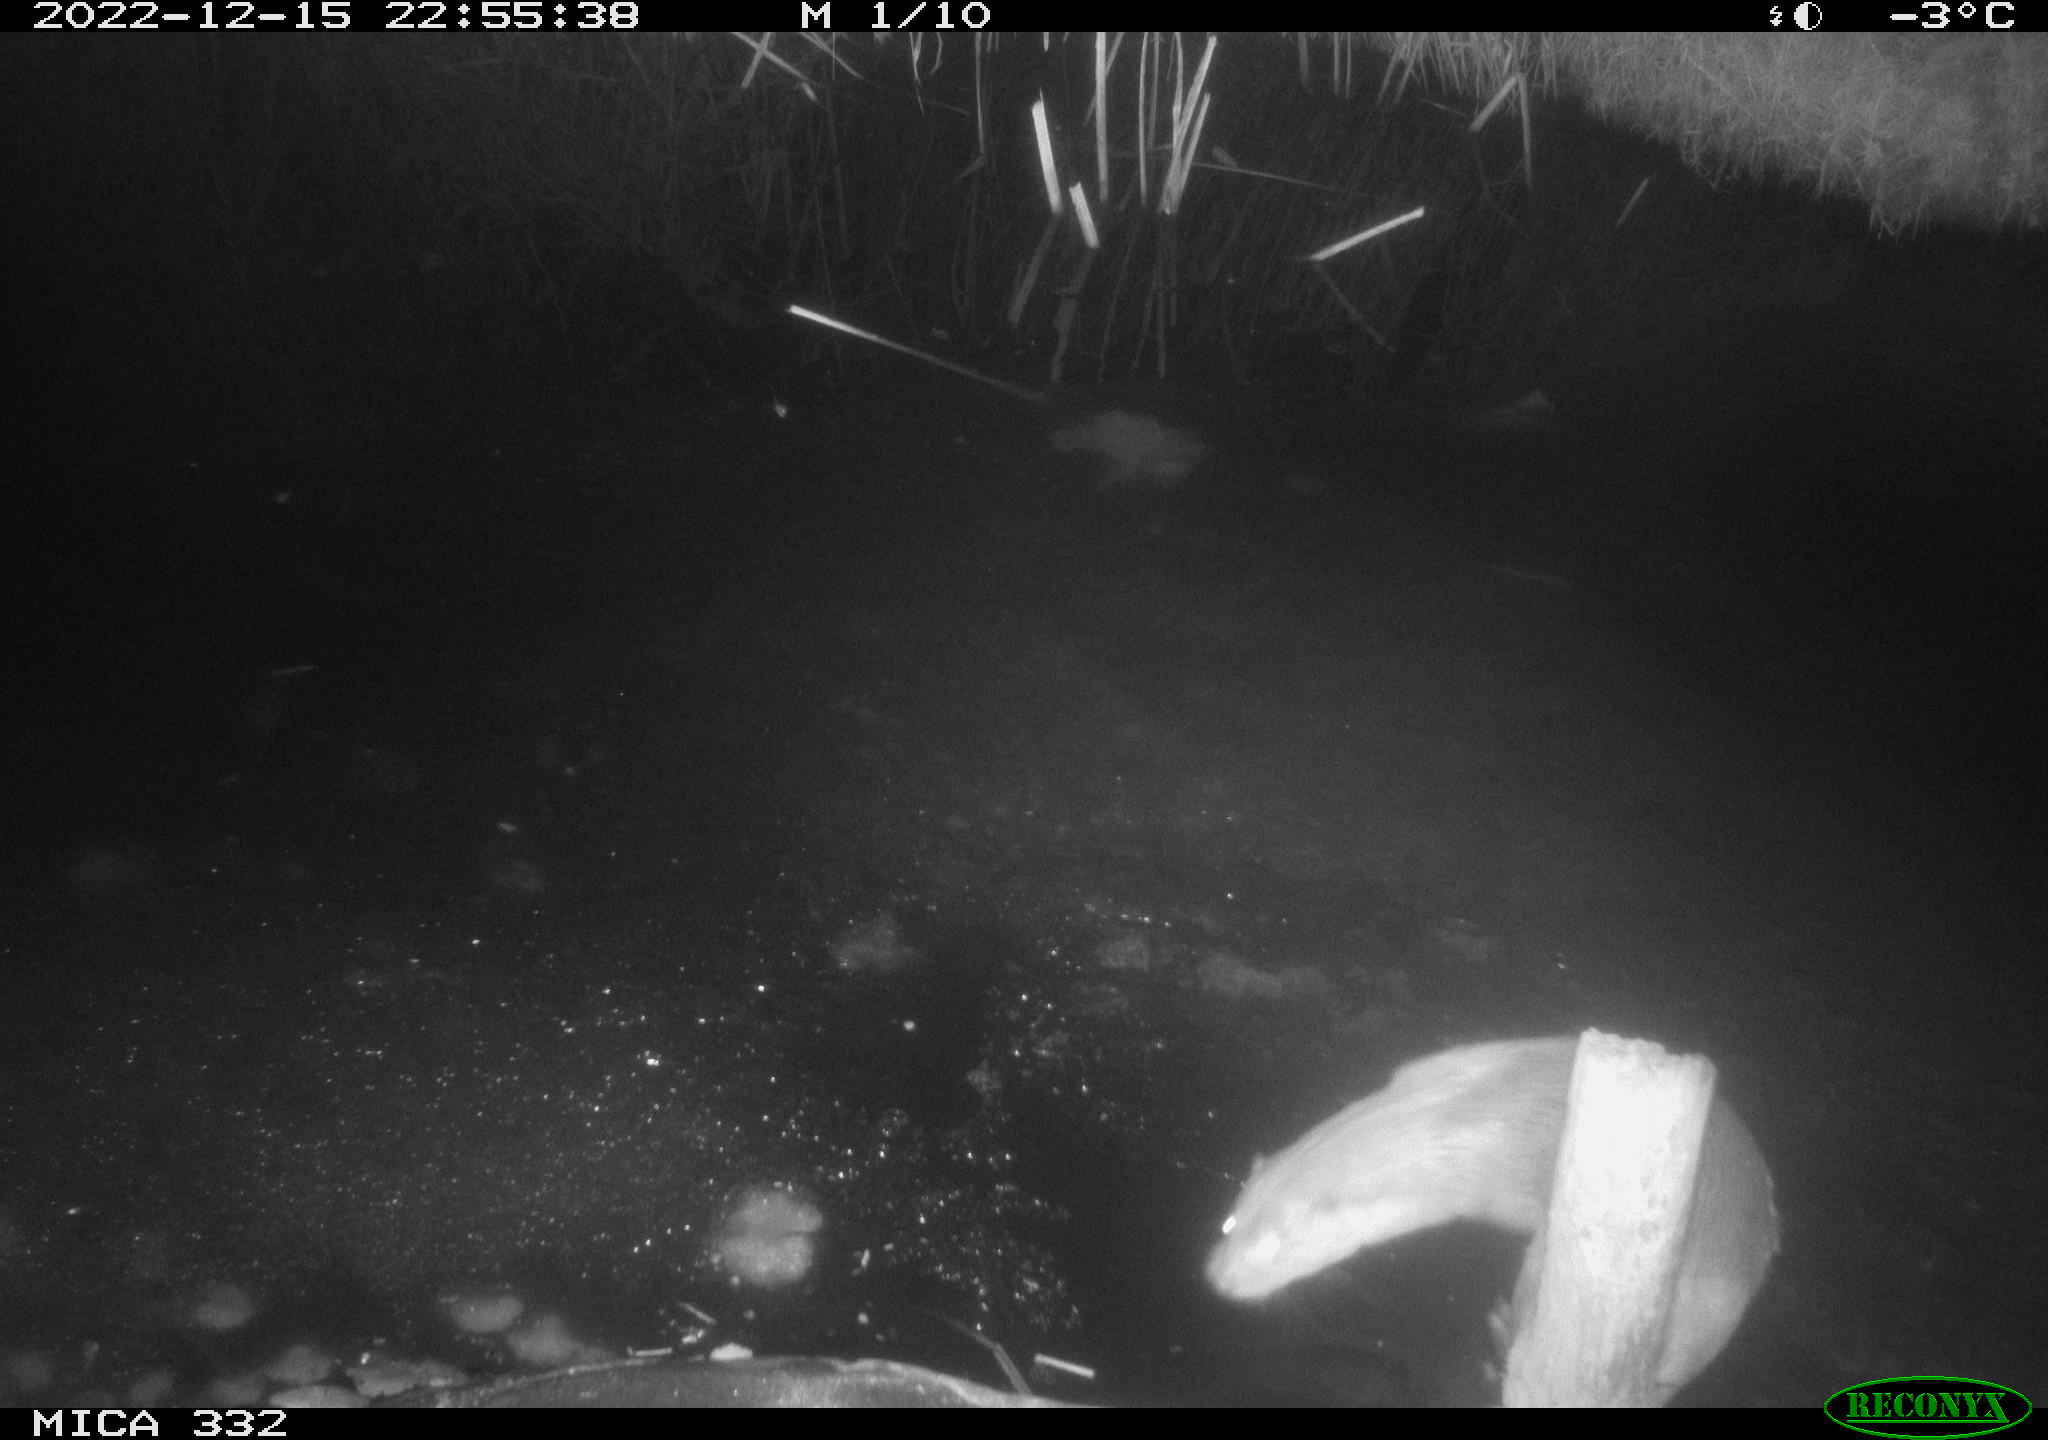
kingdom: Animalia
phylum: Chordata
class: Aves
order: Pelecaniformes
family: Ardeidae
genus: Ardea
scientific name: Ardea cinerea
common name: Grey heron
